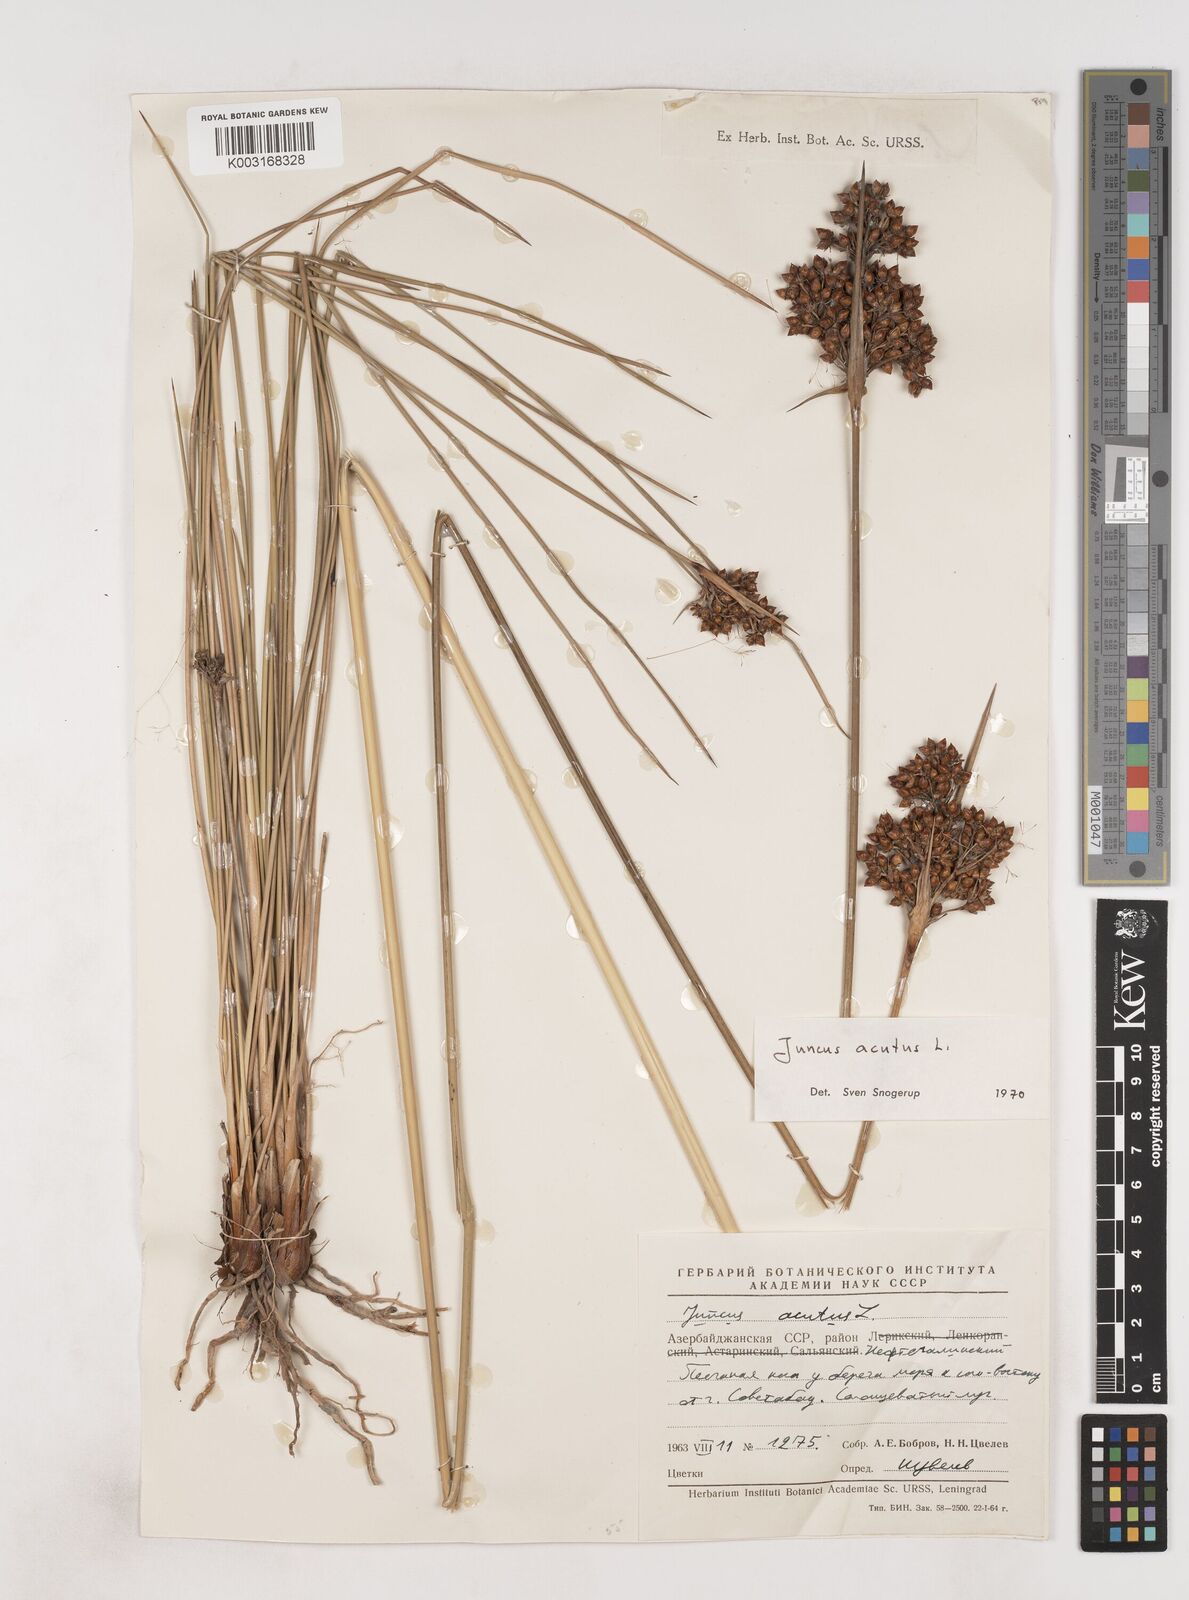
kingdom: Plantae
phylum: Tracheophyta
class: Liliopsida
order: Poales
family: Juncaceae
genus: Juncus
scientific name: Juncus acutus
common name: Sharp rush
